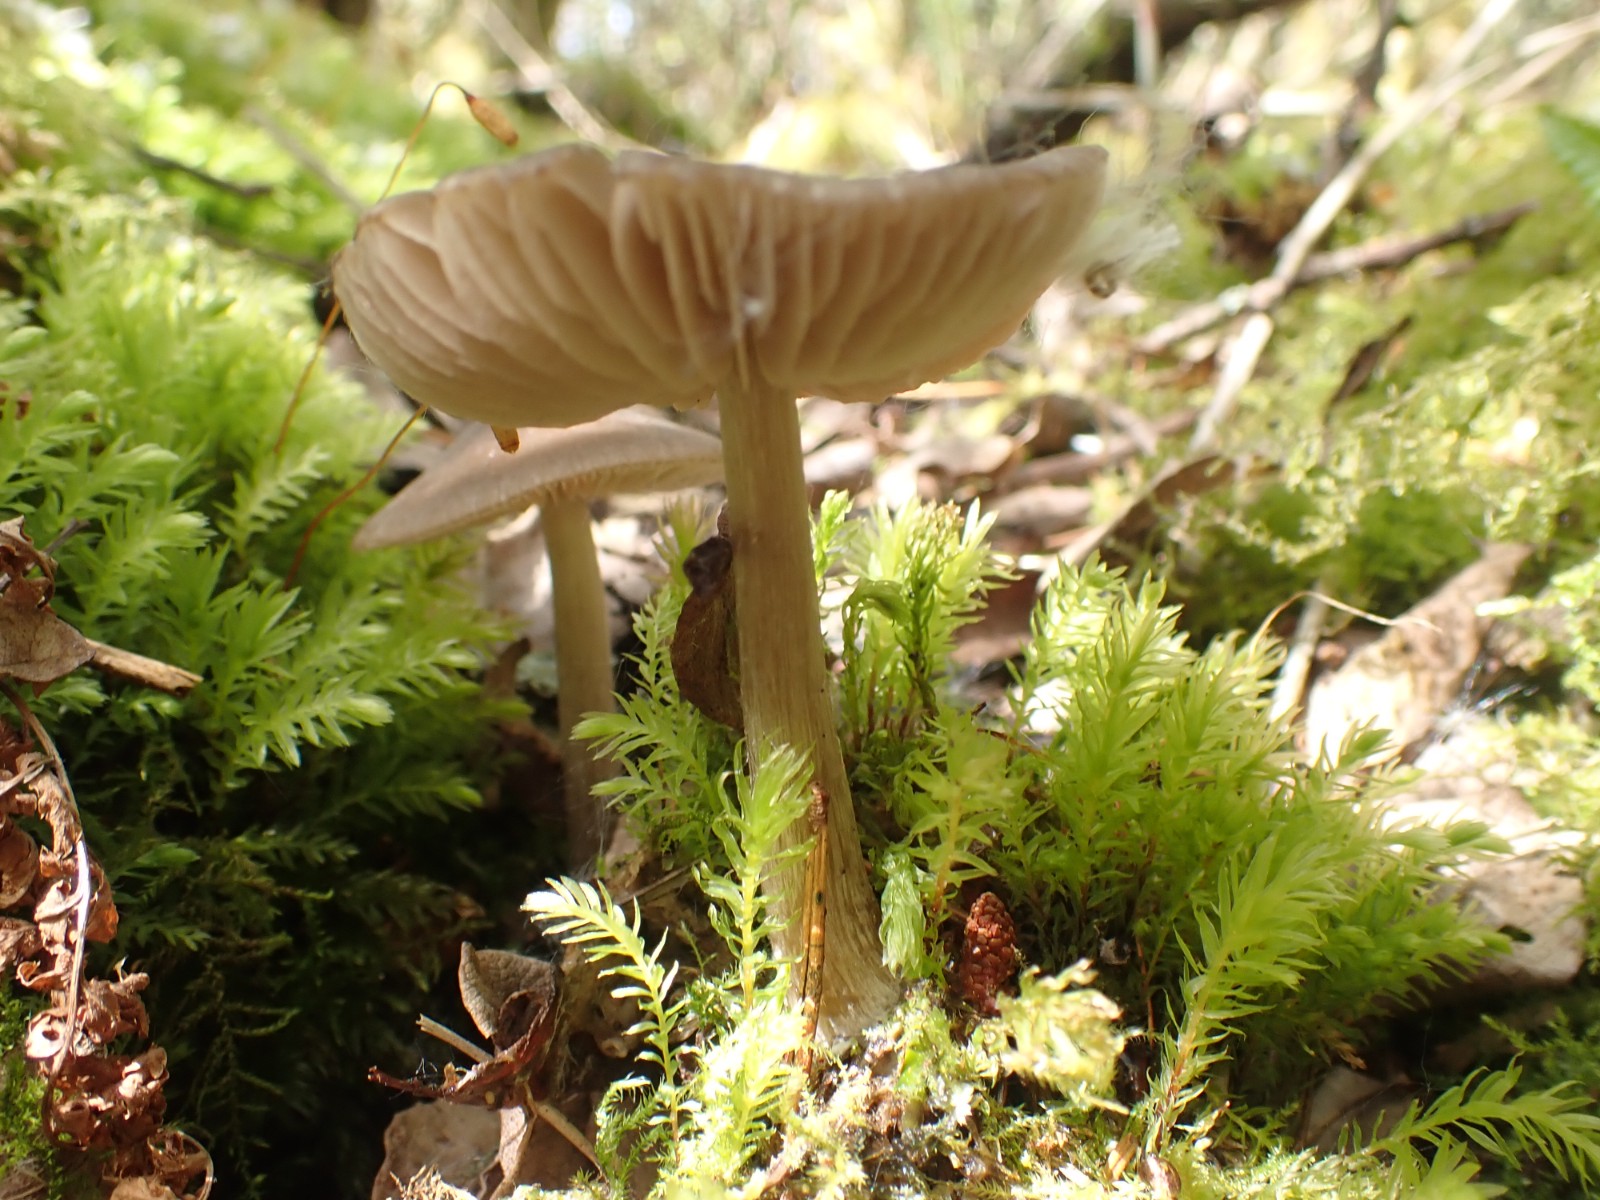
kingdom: Fungi
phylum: Basidiomycota
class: Agaricomycetes
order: Agaricales
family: Entolomataceae
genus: Entoloma
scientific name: Entoloma conferendum
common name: stjernesporet rødblad
